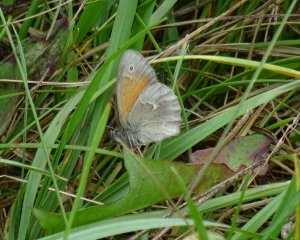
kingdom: Animalia
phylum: Arthropoda
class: Insecta
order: Lepidoptera
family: Nymphalidae
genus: Coenonympha
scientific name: Coenonympha tullia
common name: Large Heath
